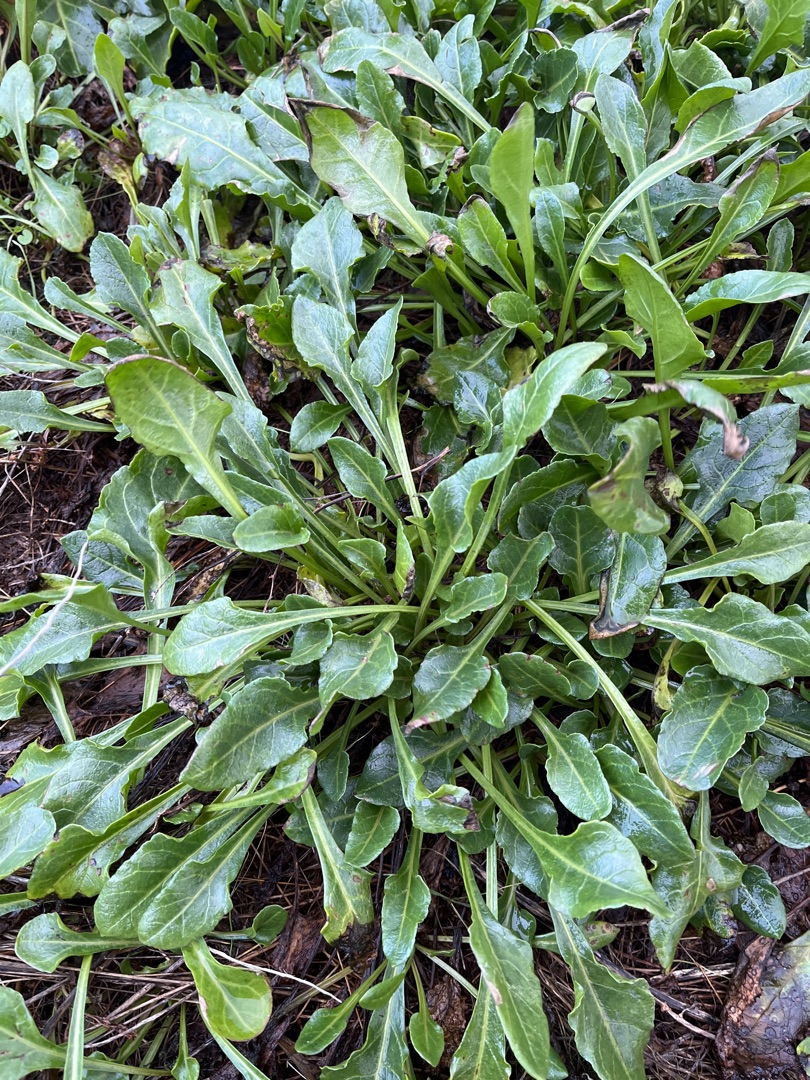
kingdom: Plantae
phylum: Tracheophyta
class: Magnoliopsida
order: Caryophyllales
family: Amaranthaceae
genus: Beta
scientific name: Beta maritima
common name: Strand-bede
